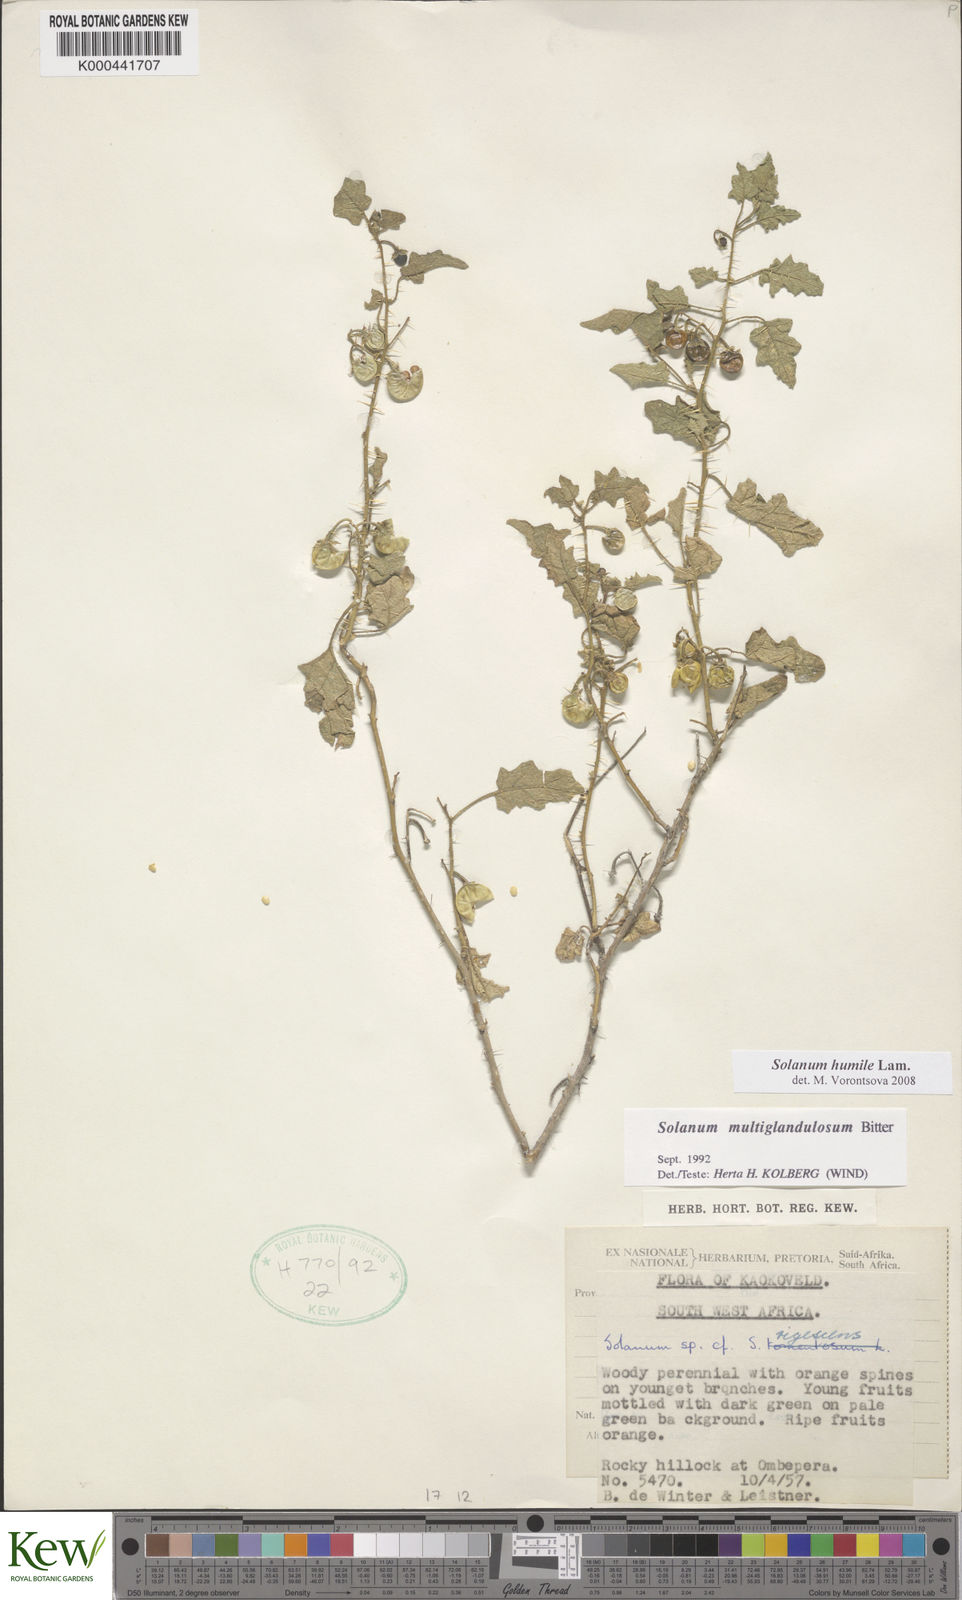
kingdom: Plantae
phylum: Tracheophyta
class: Magnoliopsida
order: Solanales
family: Solanaceae
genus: Solanum
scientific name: Solanum humile
